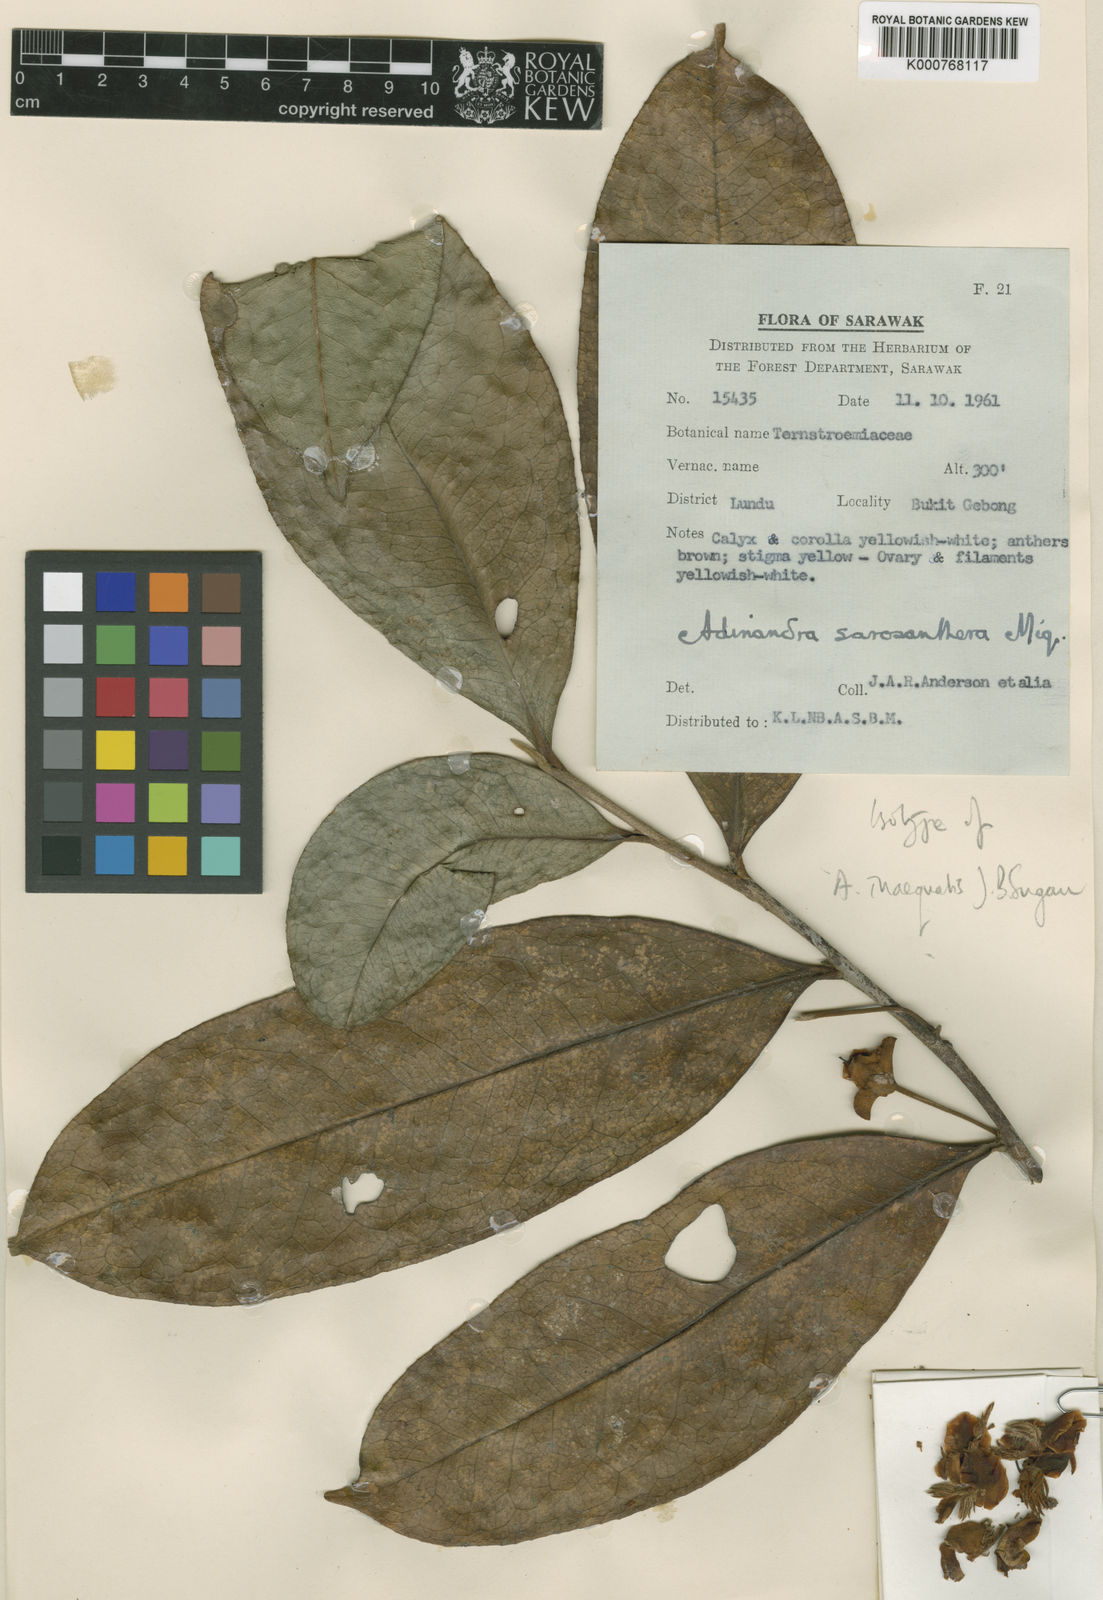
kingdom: Plantae
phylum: Tracheophyta
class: Magnoliopsida
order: Ericales
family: Pentaphylacaceae
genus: Adinandra
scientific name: Adinandra inaequalis
